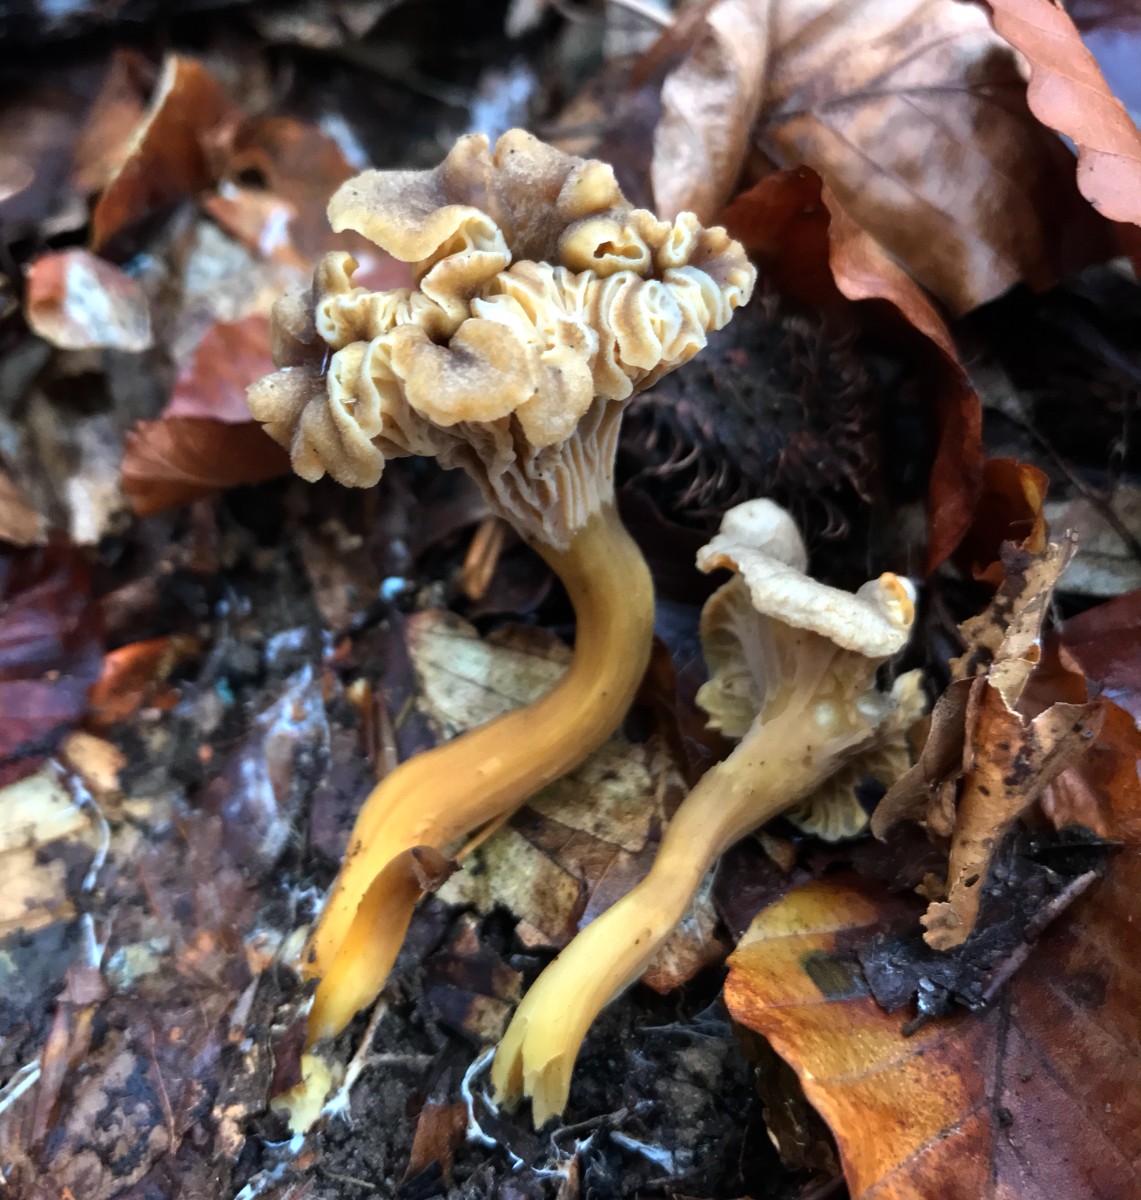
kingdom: Fungi
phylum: Basidiomycota
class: Agaricomycetes
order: Cantharellales
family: Hydnaceae
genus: Craterellus
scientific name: Craterellus tubaeformis
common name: tragt-kantarel
